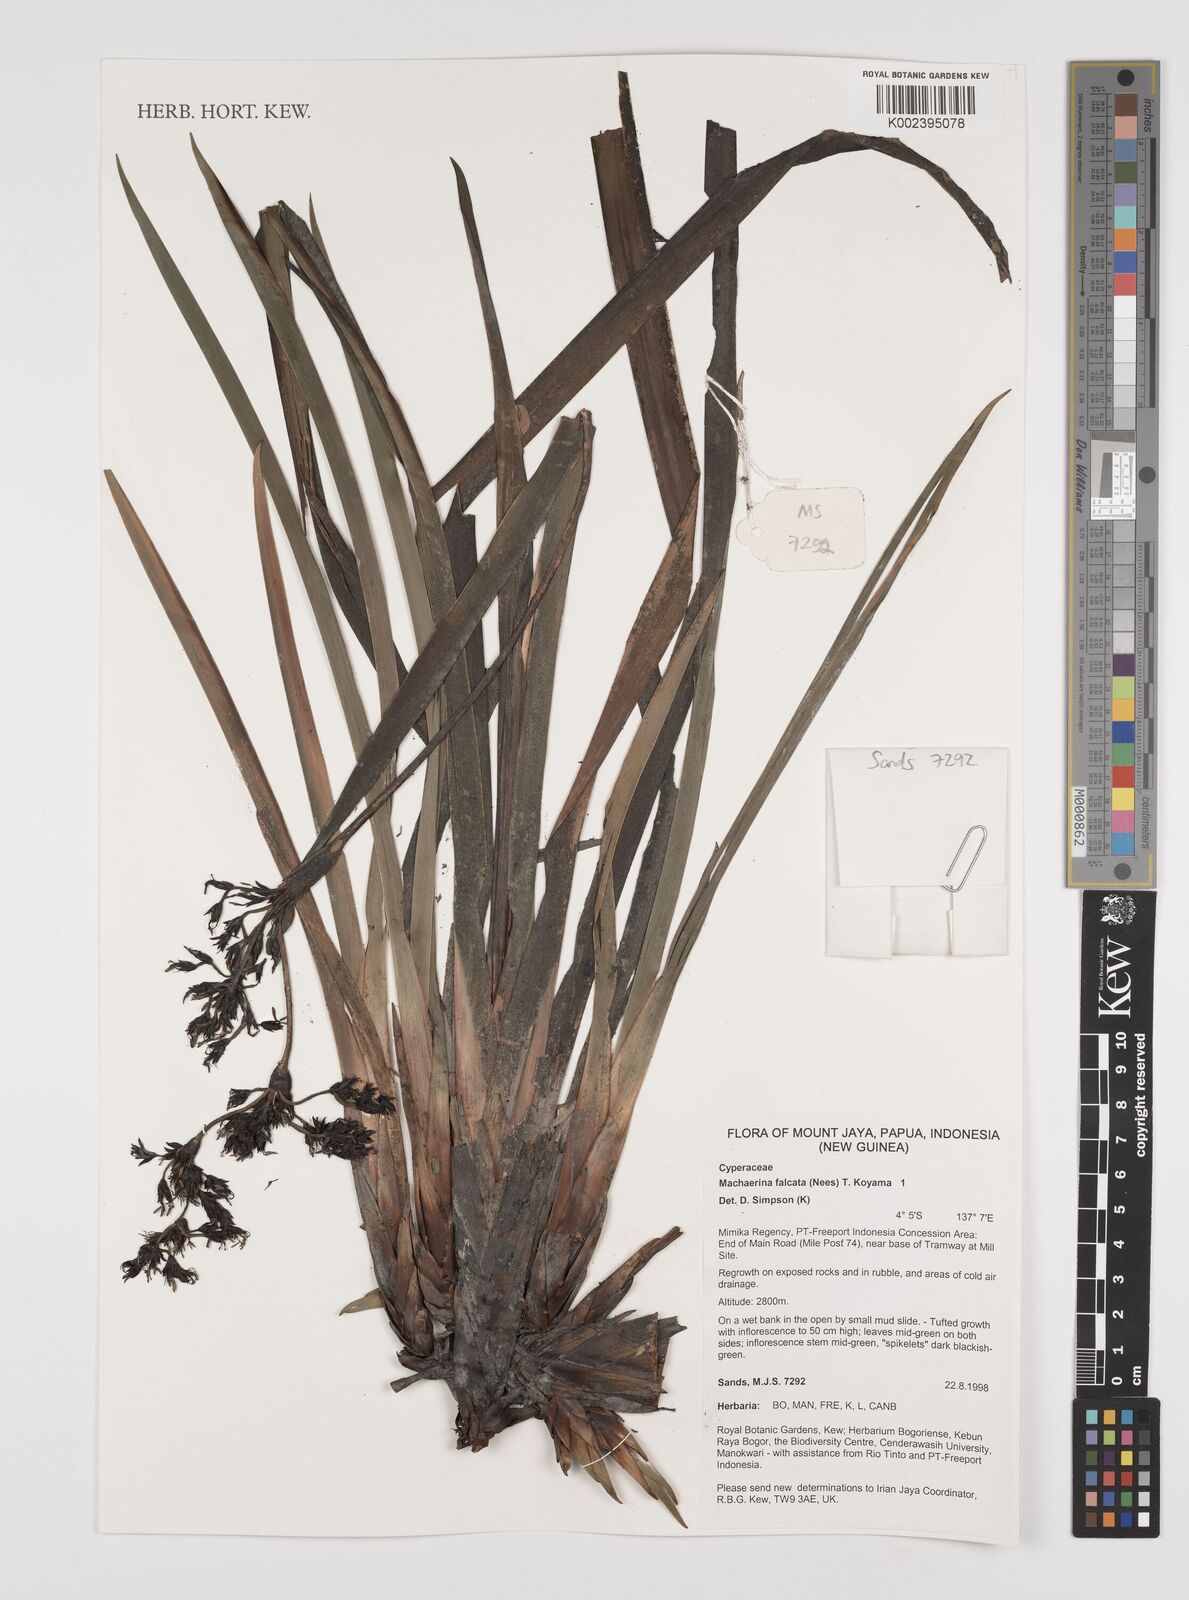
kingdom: Plantae
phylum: Tracheophyta
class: Liliopsida
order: Poales
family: Cyperaceae
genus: Machaerina
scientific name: Machaerina falcata
